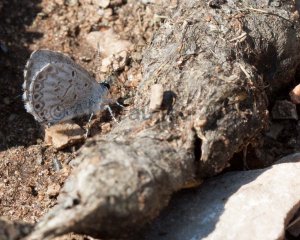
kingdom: Animalia
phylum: Arthropoda
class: Insecta
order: Lepidoptera
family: Lycaenidae
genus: Cyaniris
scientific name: Cyaniris neglecta
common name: Summer Azure
